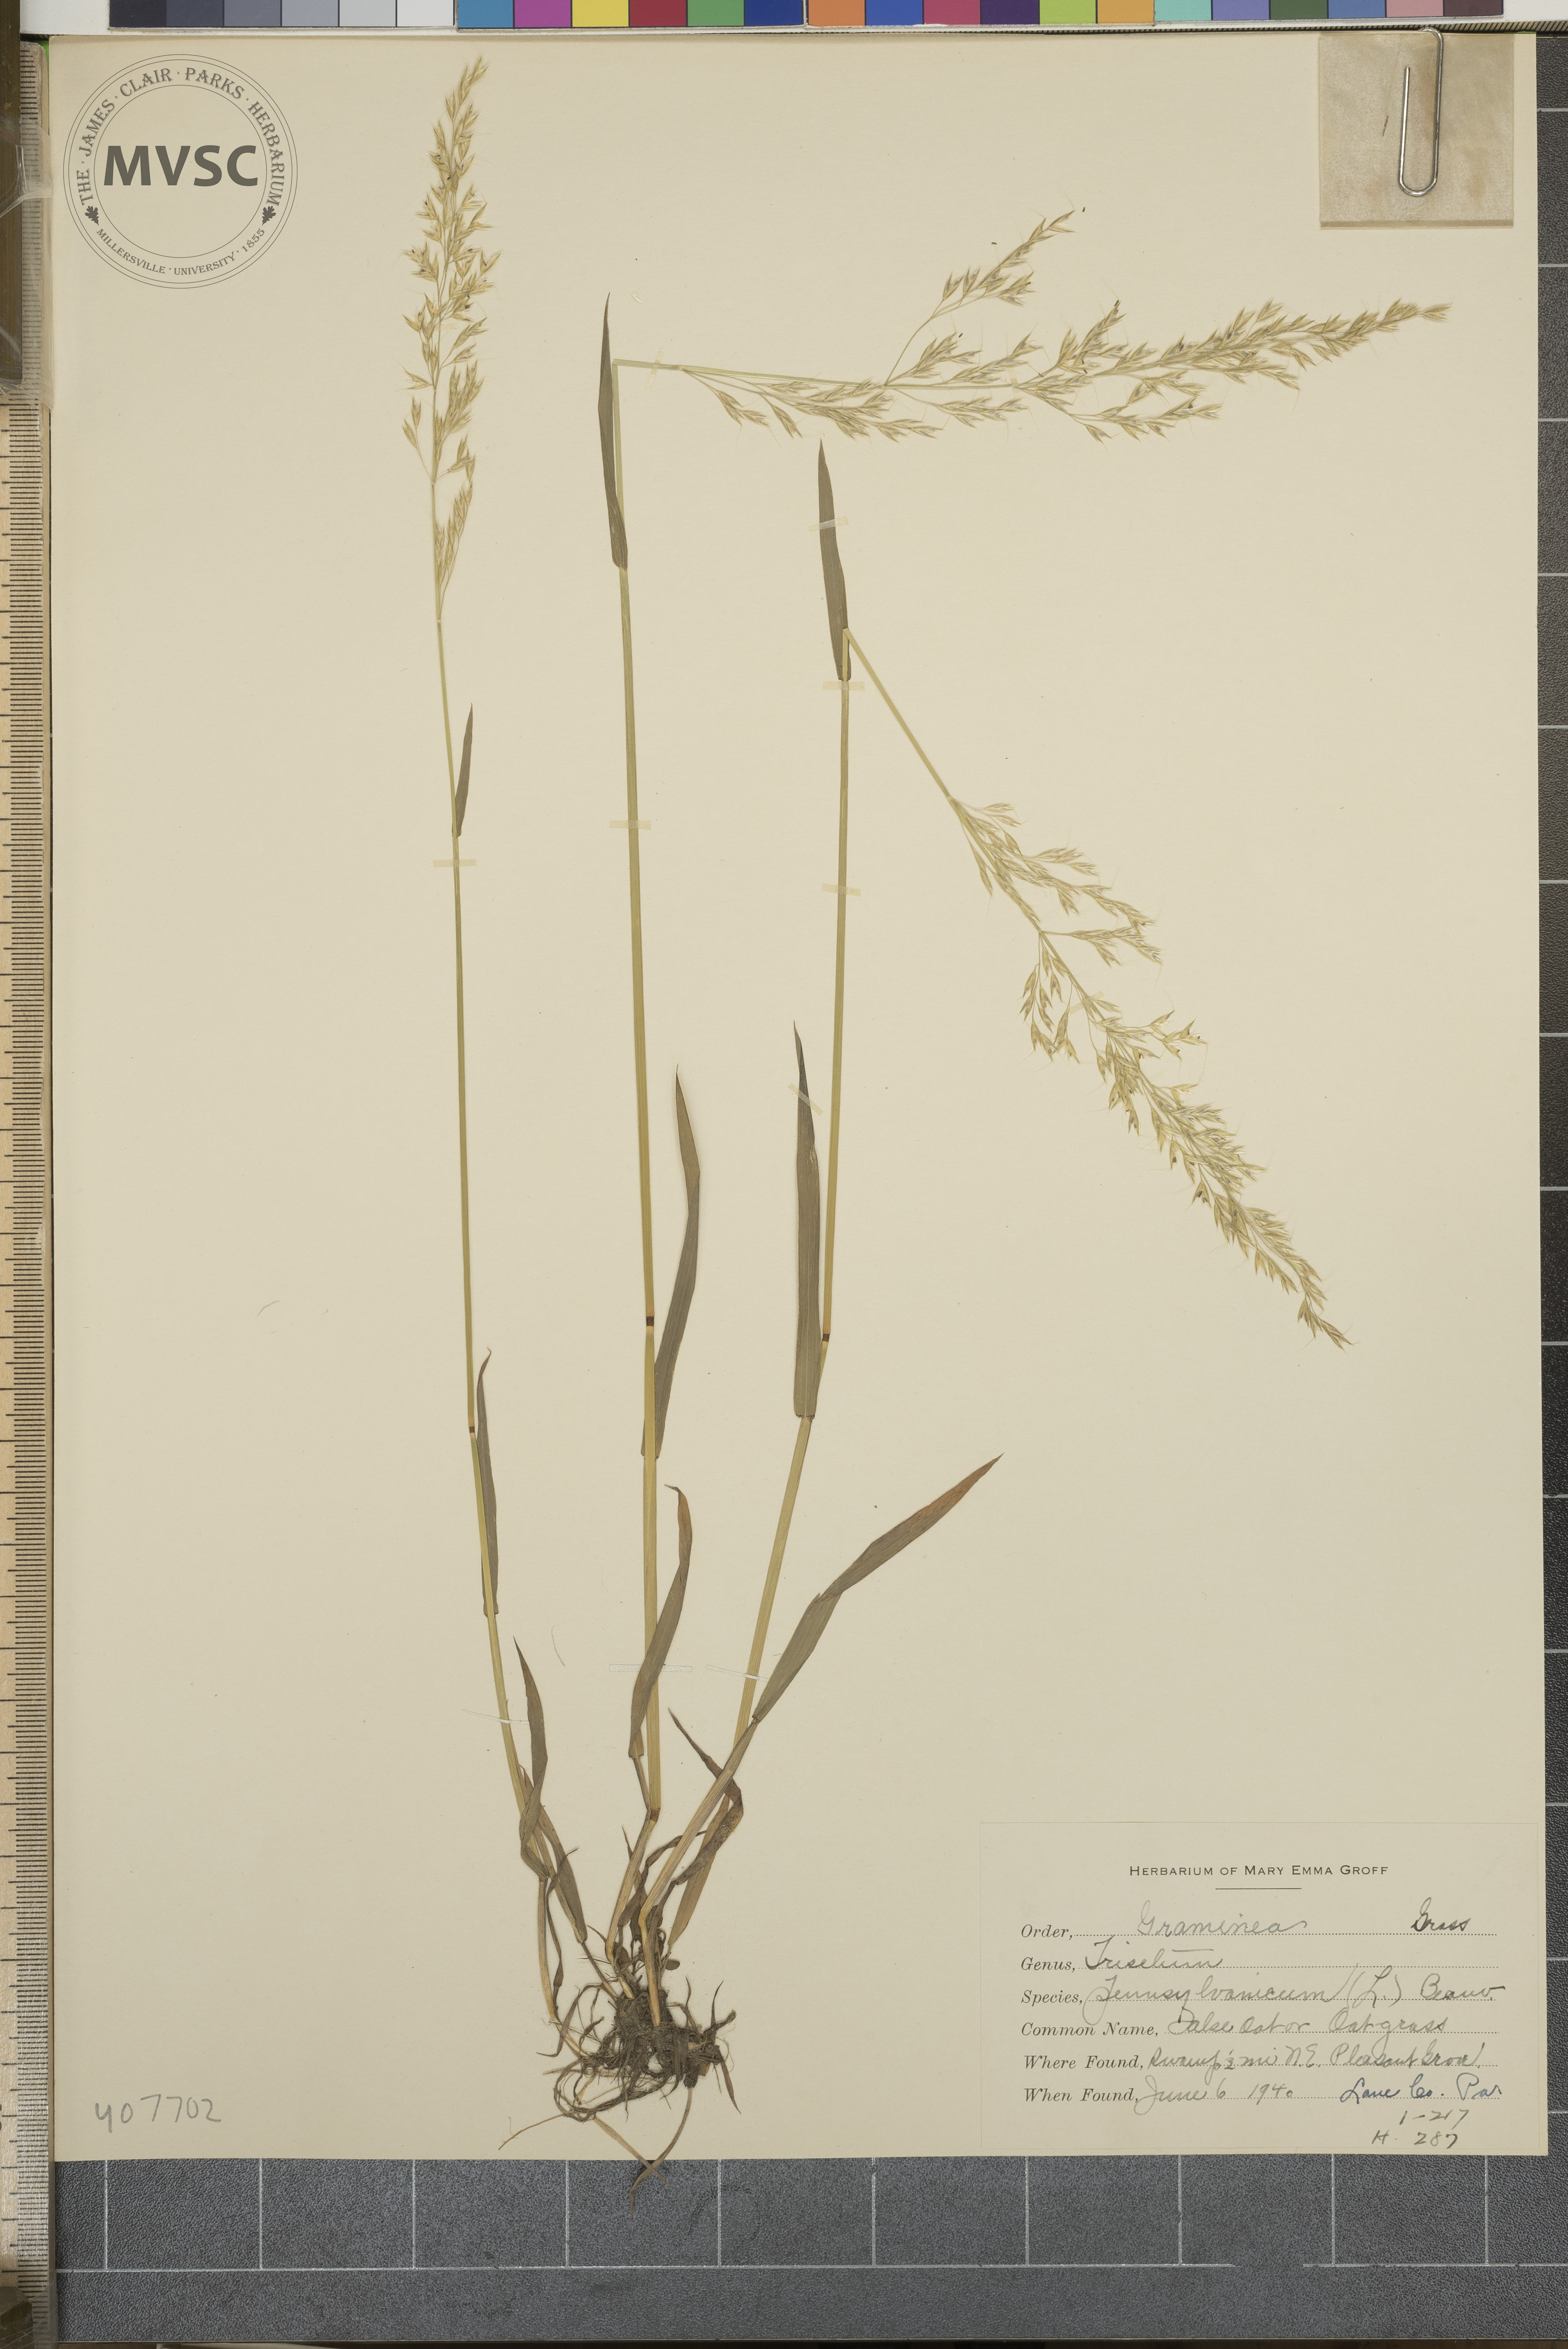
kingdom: Plantae
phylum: Tracheophyta
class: Liliopsida
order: Poales
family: Poaceae
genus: Sphenopholis
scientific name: Sphenopholis pensylvanica
